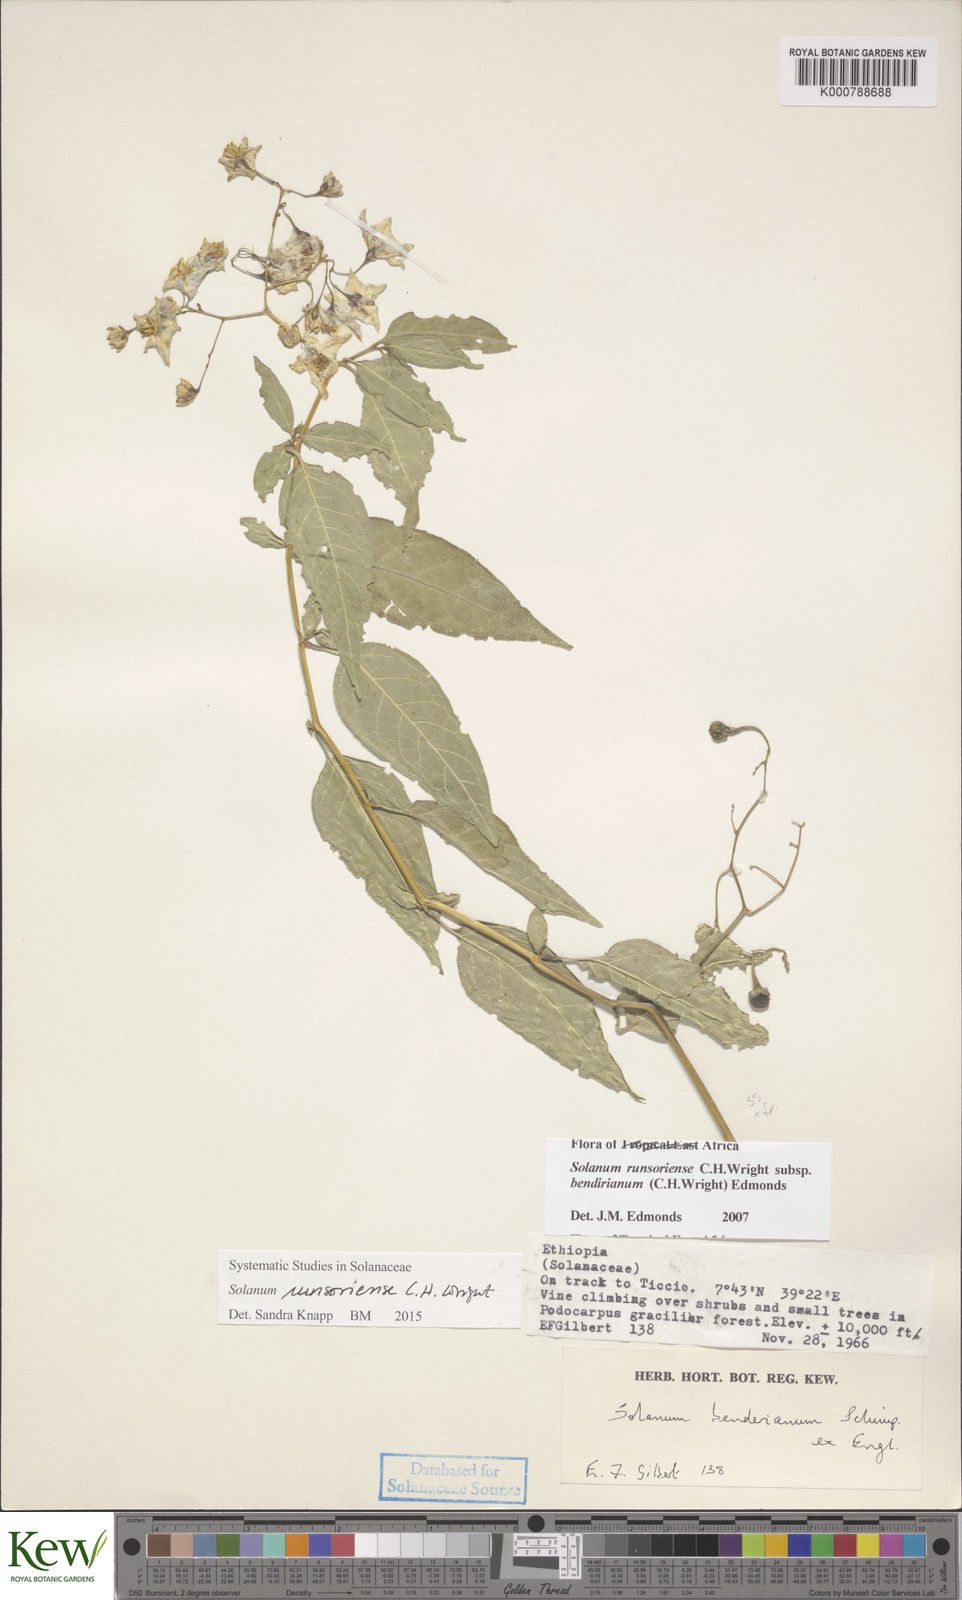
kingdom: Plantae
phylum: Tracheophyta
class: Magnoliopsida
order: Solanales
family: Solanaceae
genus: Solanum
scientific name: Solanum runsoriense
